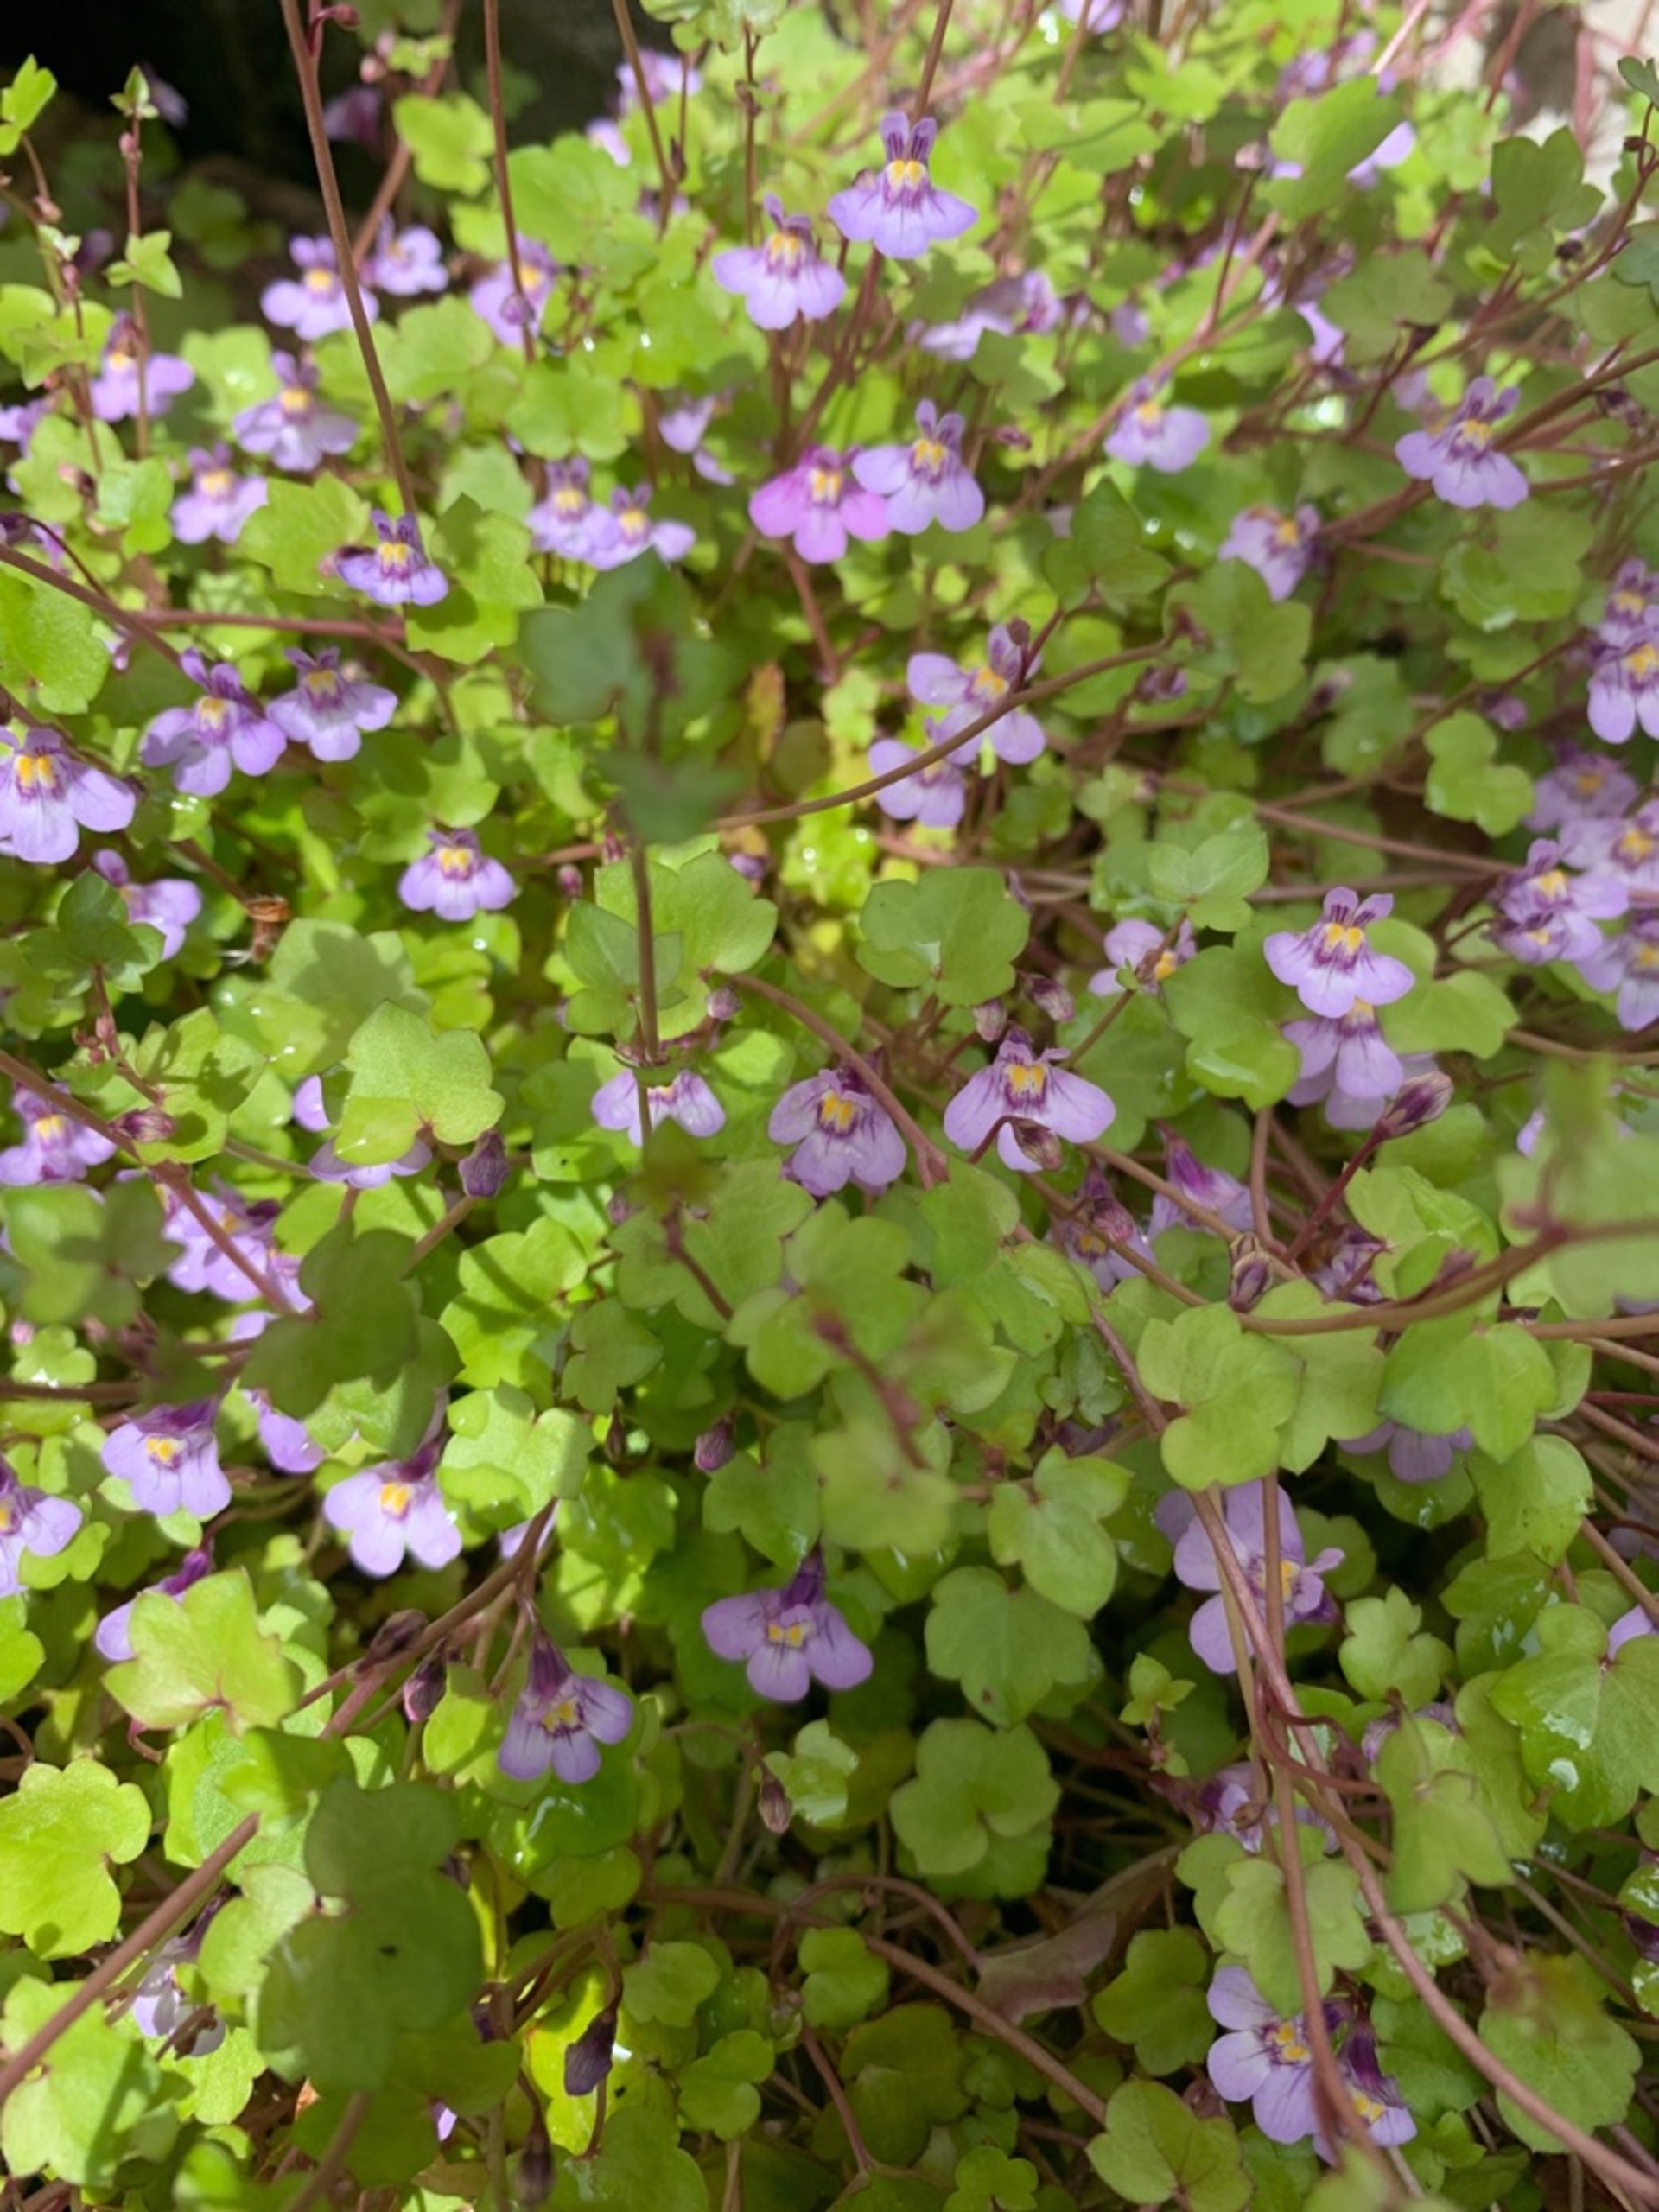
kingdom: Plantae
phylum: Tracheophyta
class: Magnoliopsida
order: Lamiales
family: Plantaginaceae
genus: Cymbalaria
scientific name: Cymbalaria muralis
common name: Vedbend-torskemund
